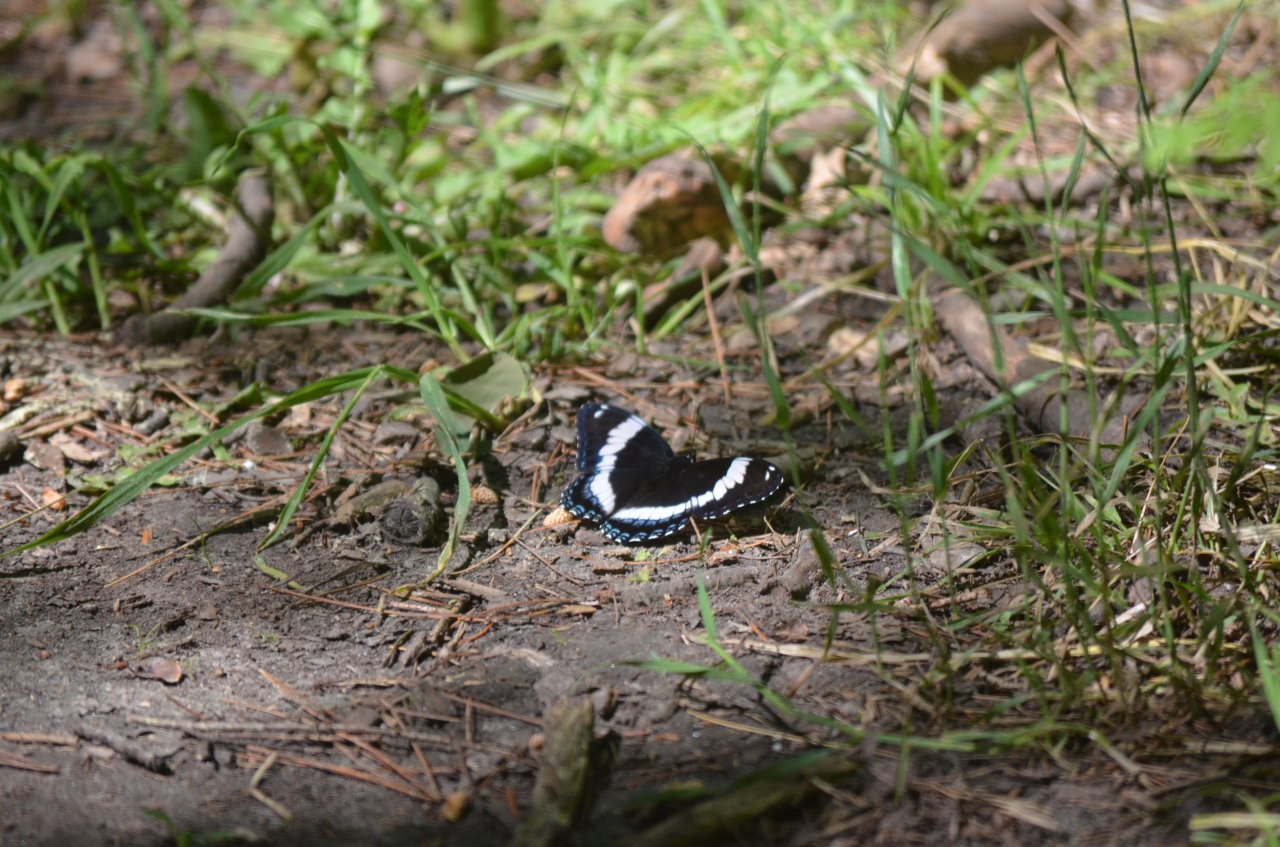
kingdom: Animalia
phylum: Arthropoda
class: Insecta
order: Lepidoptera
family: Nymphalidae
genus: Limenitis
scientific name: Limenitis arthemis
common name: Red-spotted Admiral
